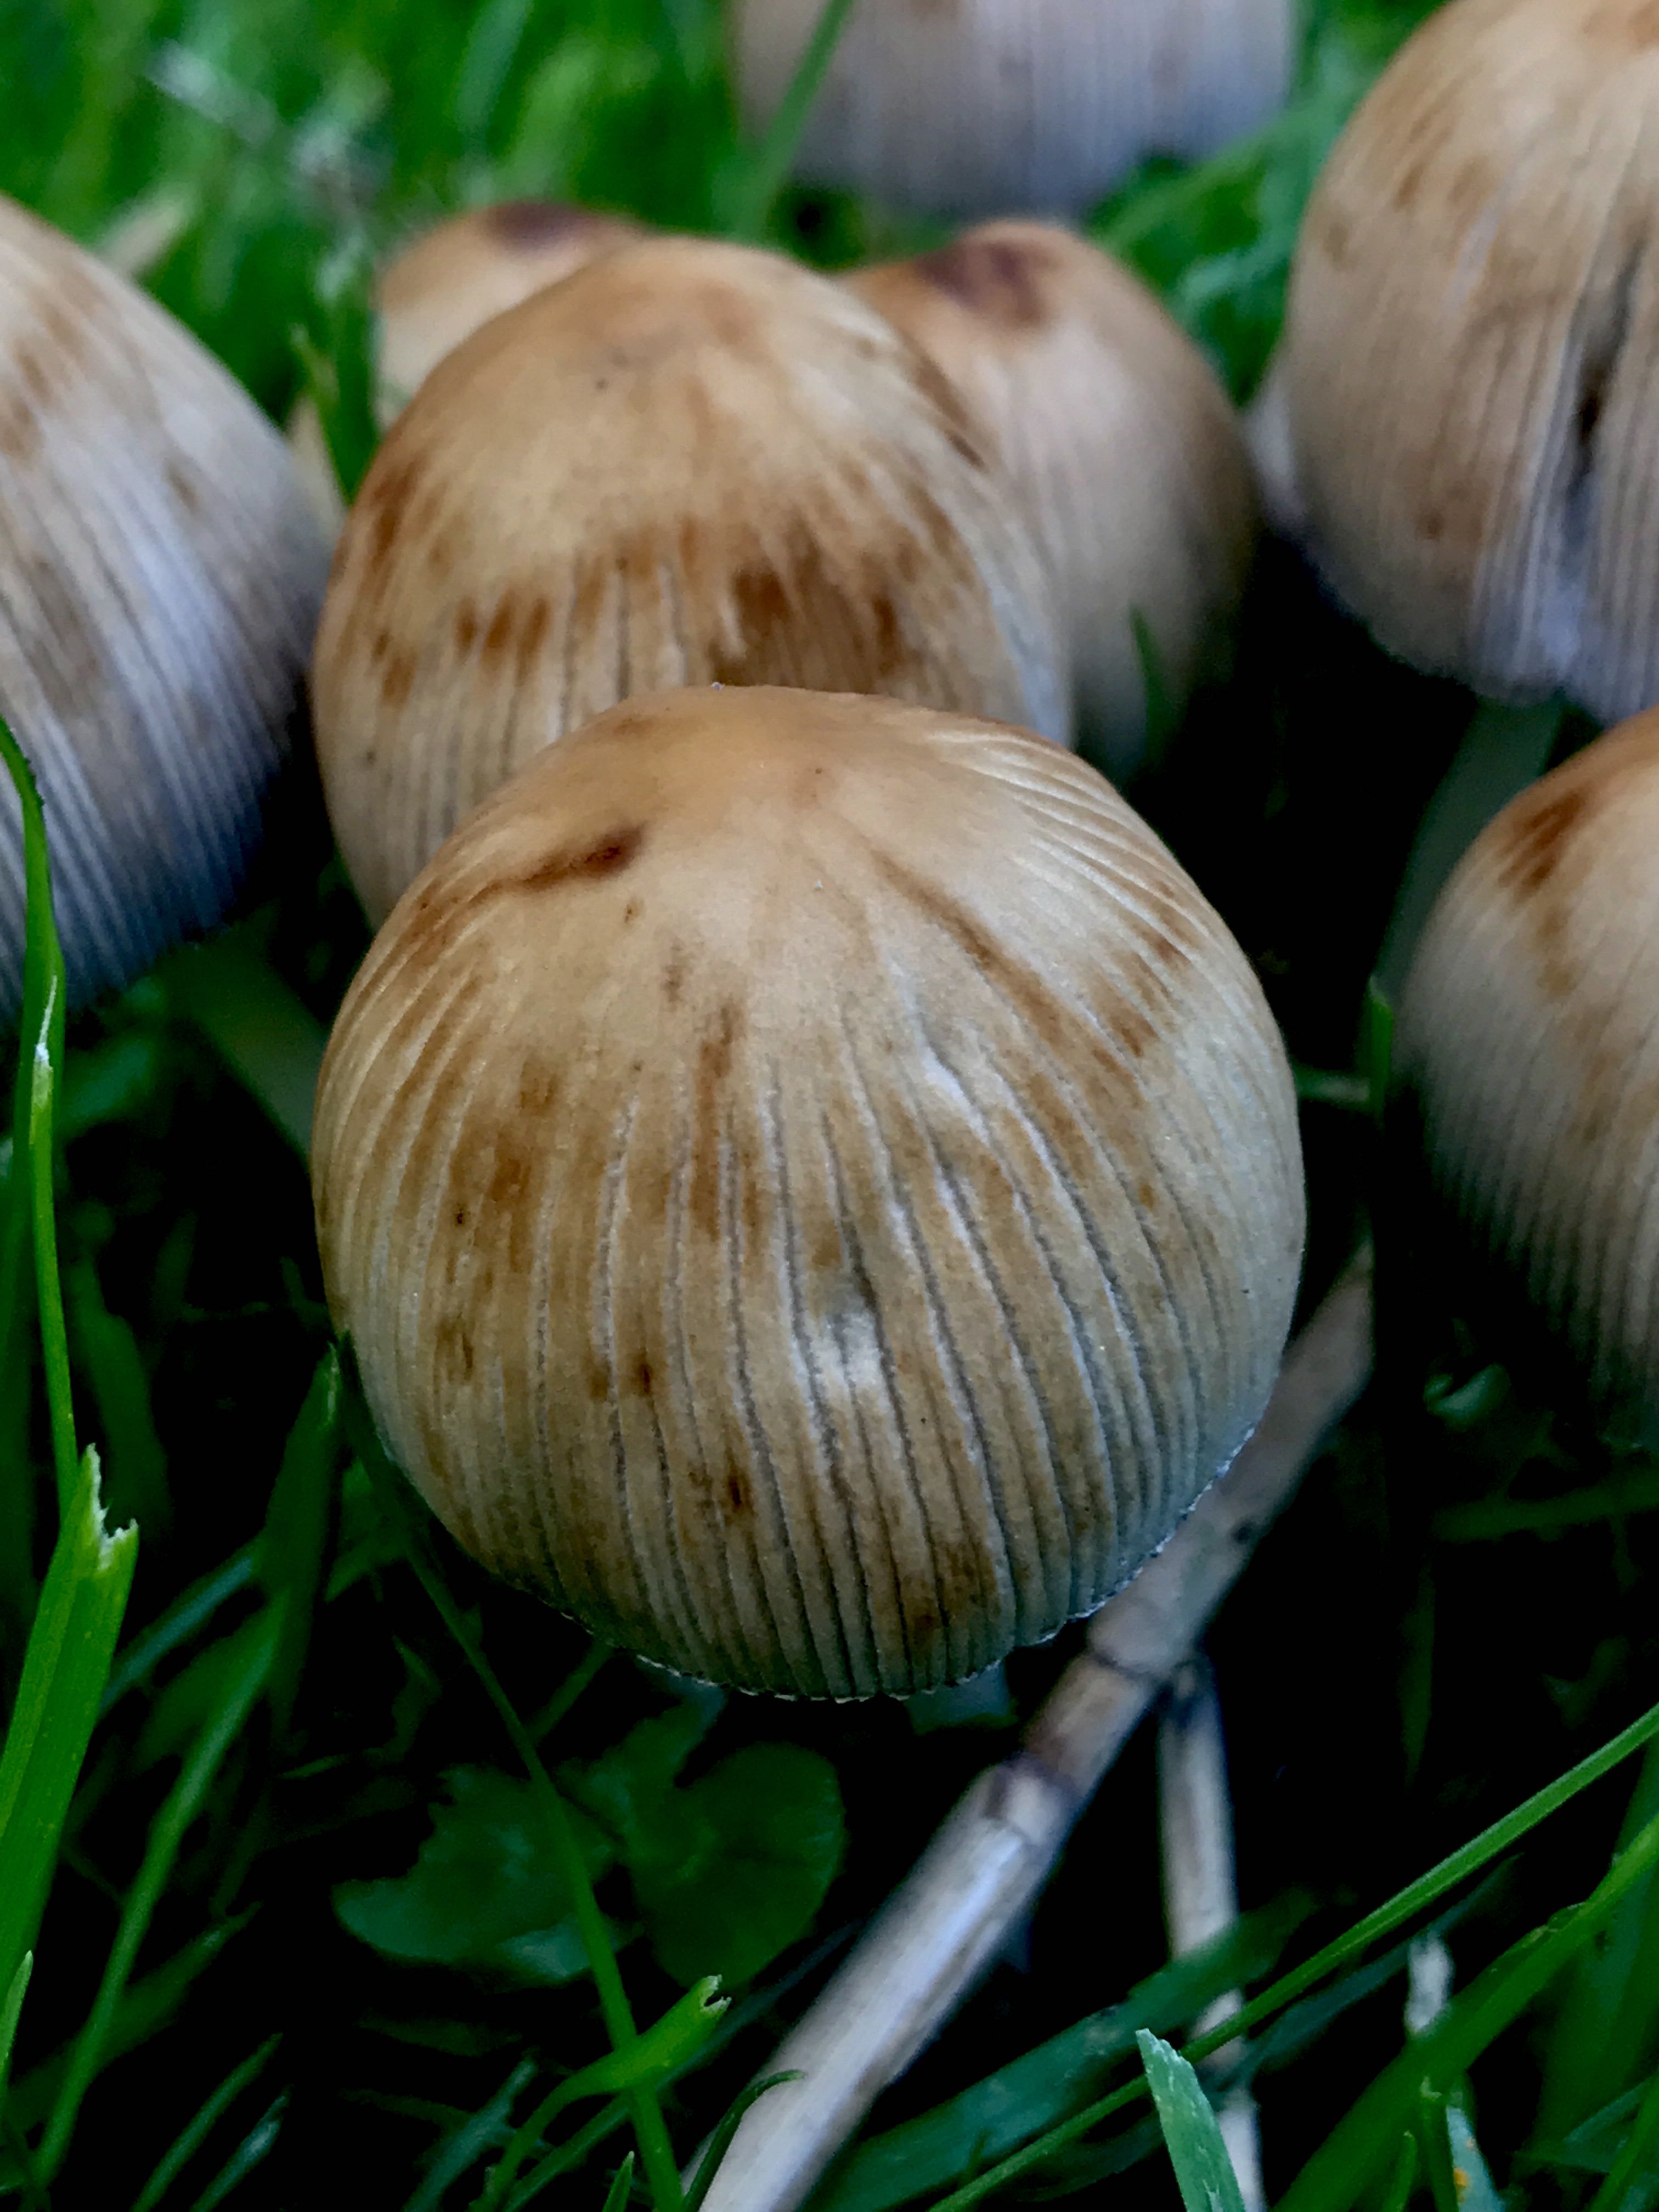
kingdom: Fungi
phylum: Basidiomycota
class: Agaricomycetes
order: Agaricales
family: Psathyrellaceae
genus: Coprinellus
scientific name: Coprinellus micaceus
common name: glimmer-blækhat
